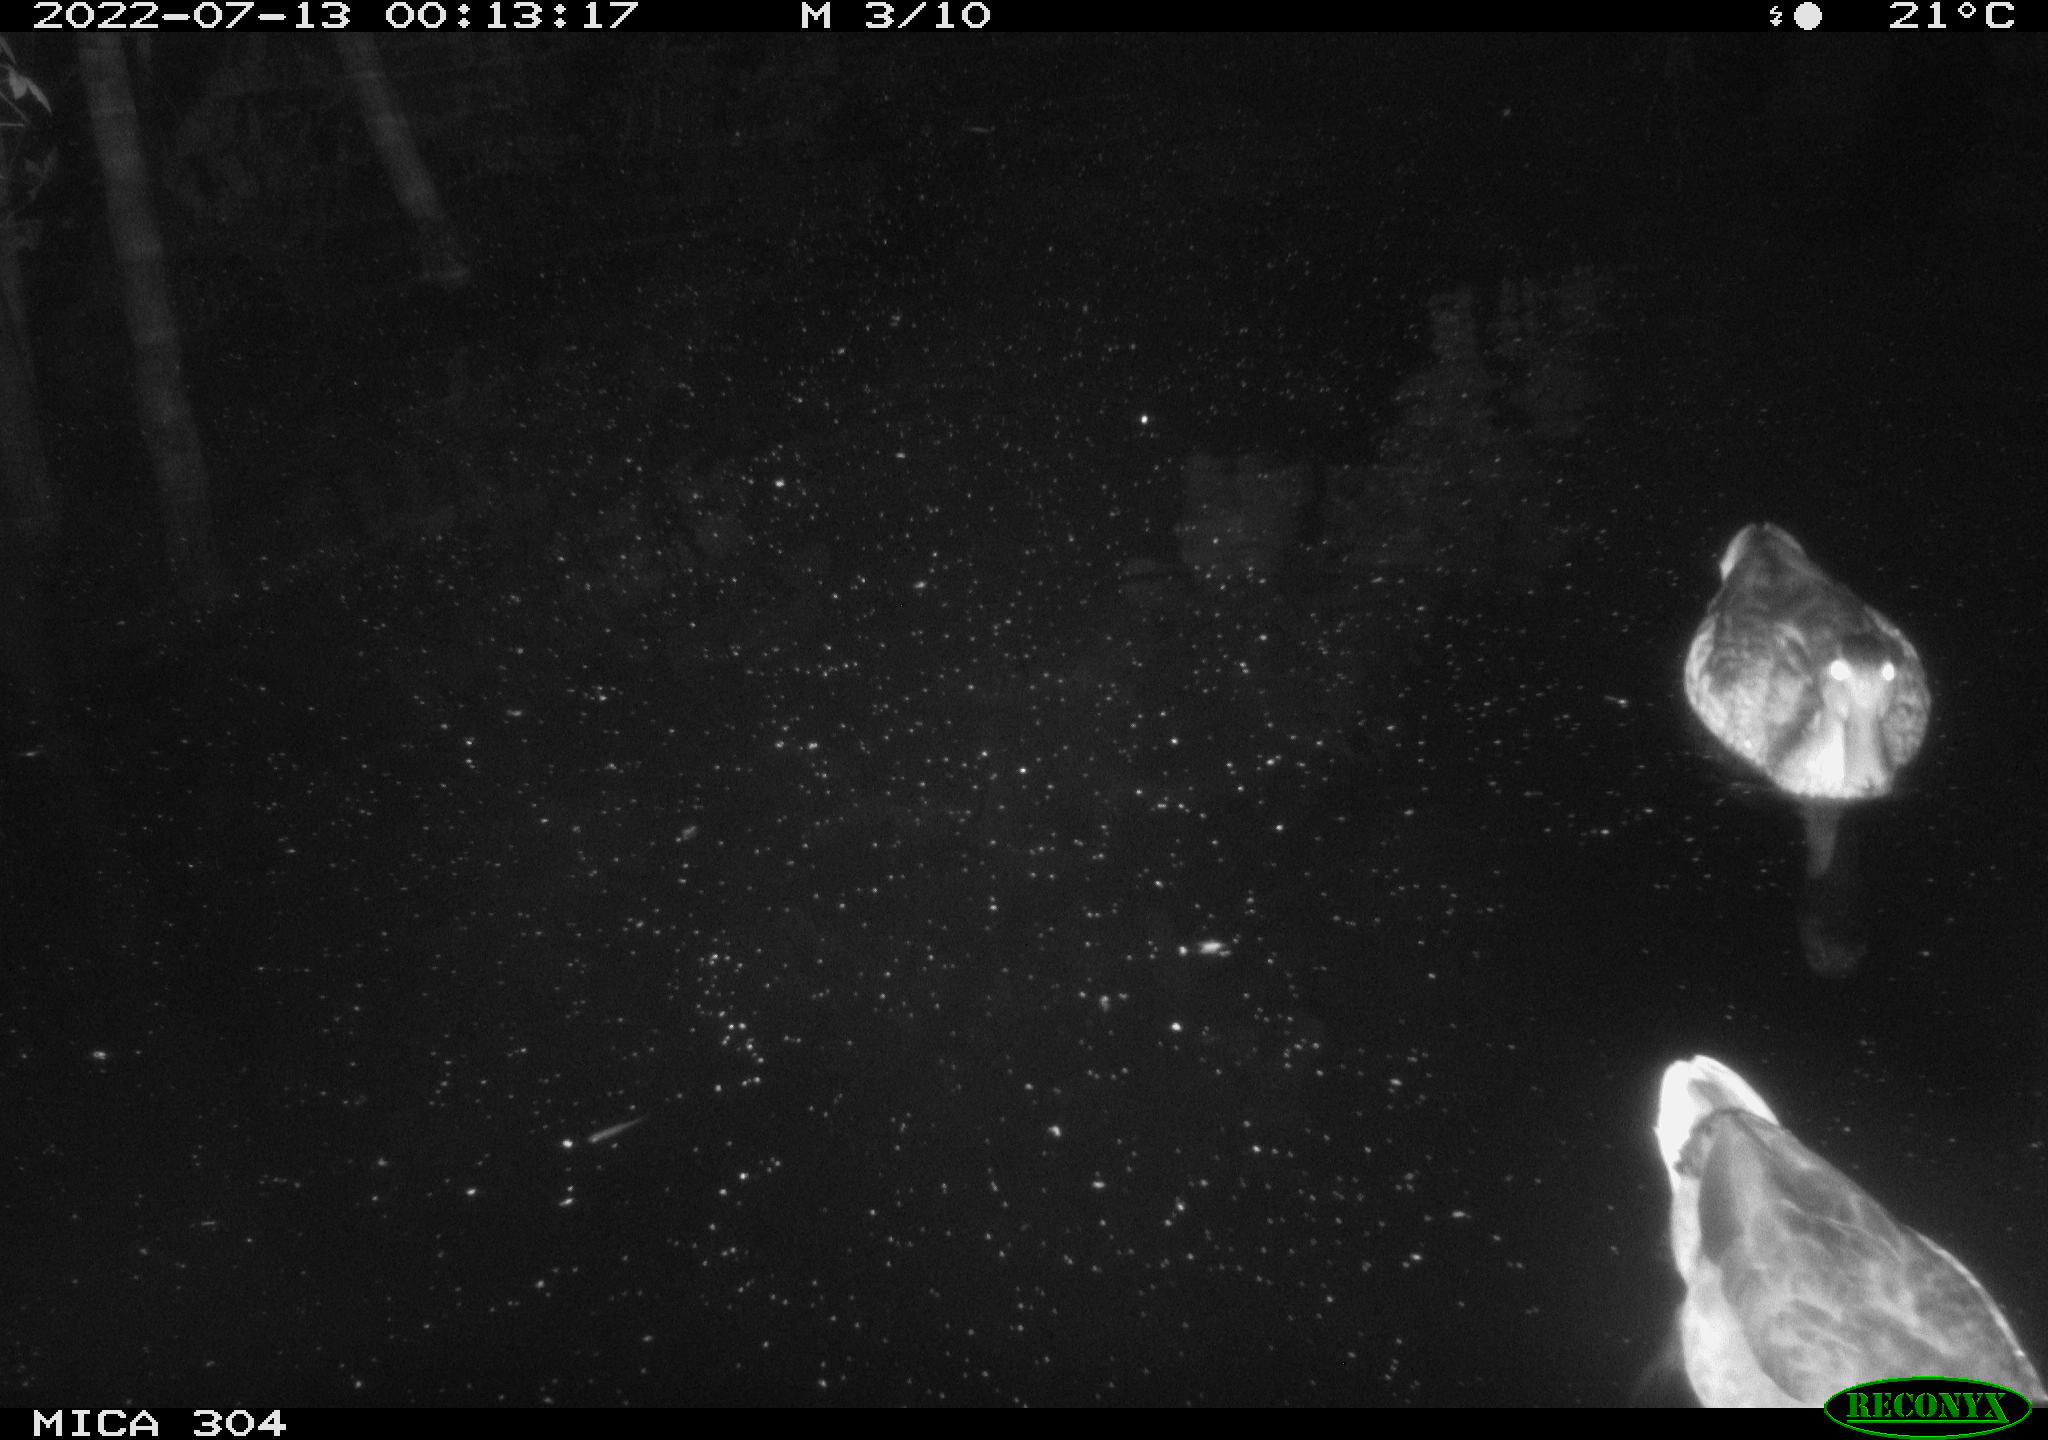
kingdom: Animalia
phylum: Chordata
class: Aves
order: Anseriformes
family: Anatidae
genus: Anas
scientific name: Anas platyrhynchos
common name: Mallard
